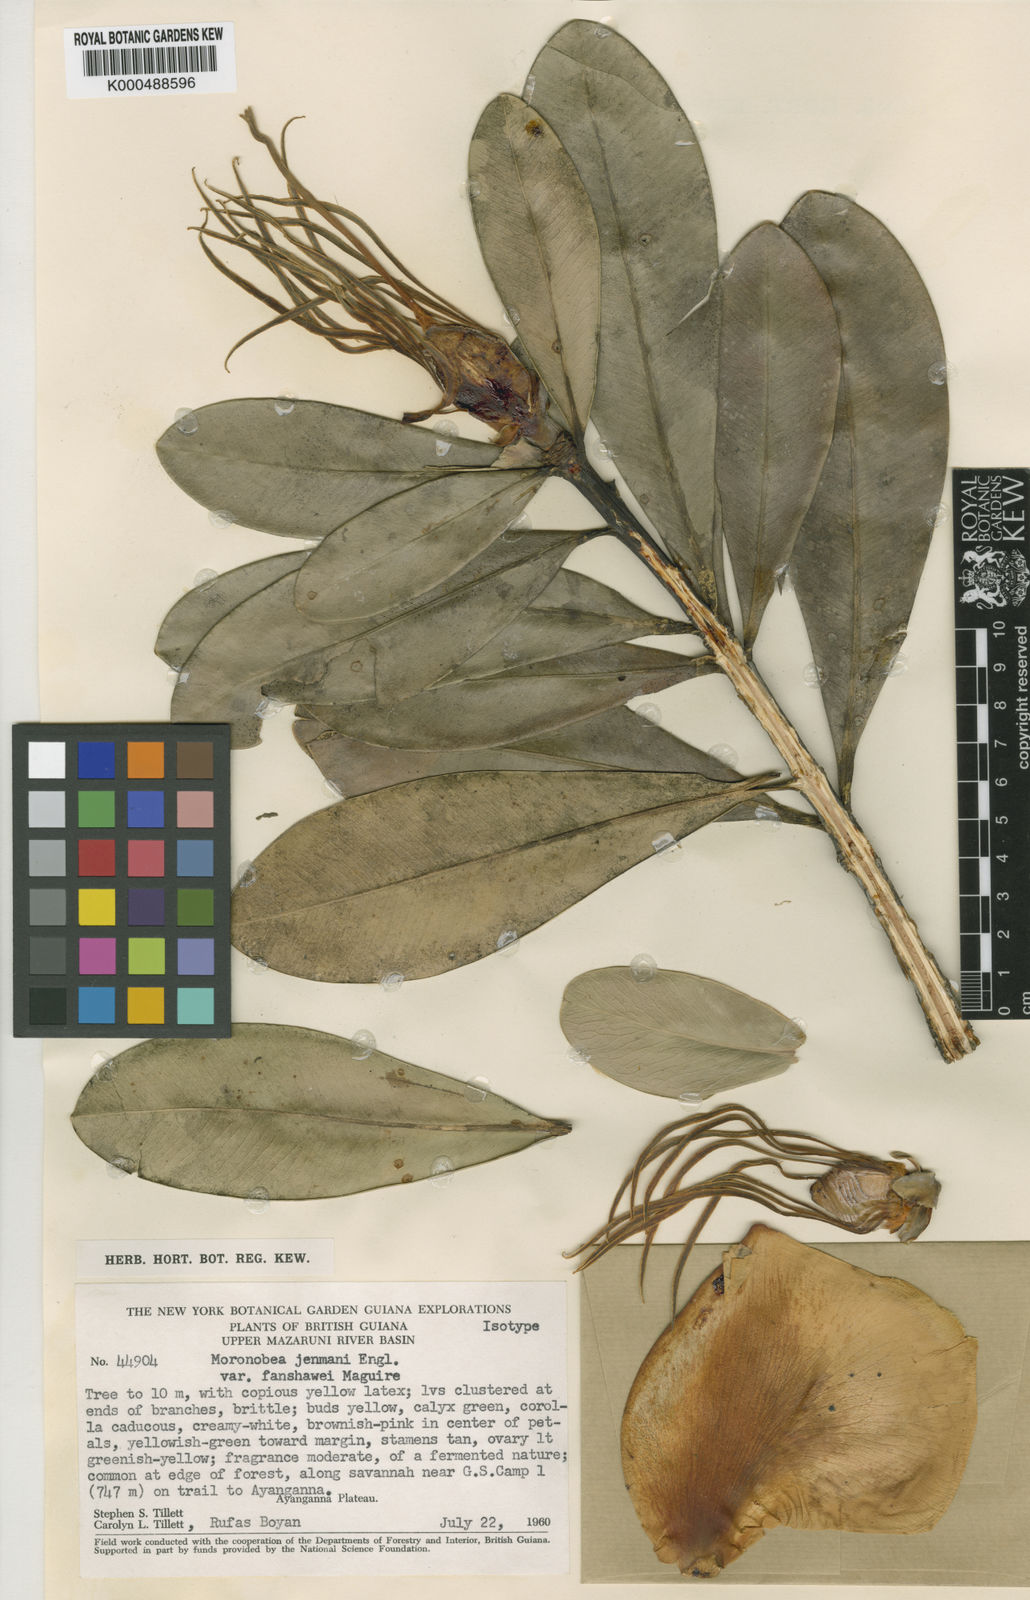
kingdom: Plantae
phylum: Tracheophyta
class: Magnoliopsida
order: Malpighiales
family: Clusiaceae
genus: Moronobea
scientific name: Moronobea jenmanii
